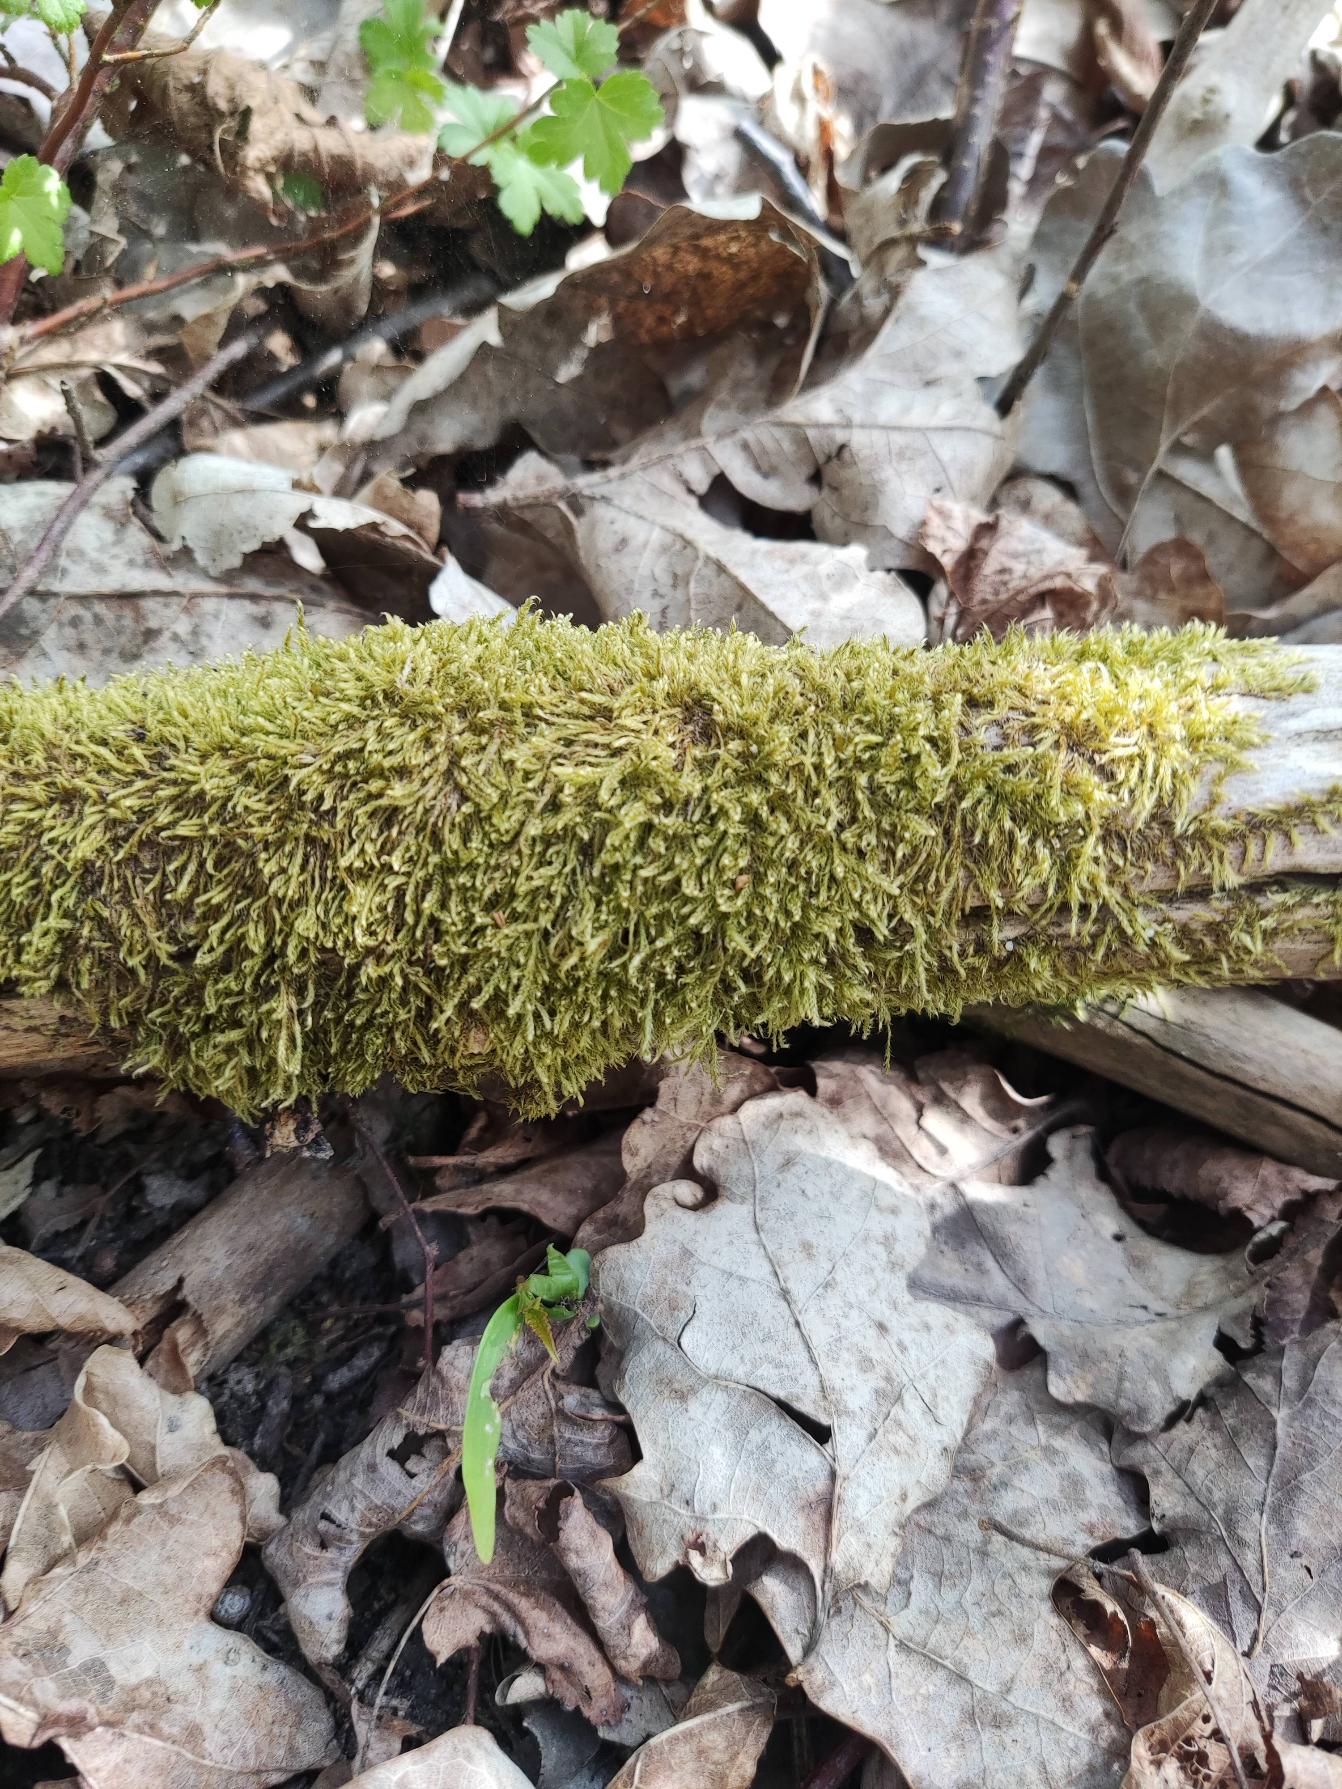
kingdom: Plantae
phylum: Bryophyta
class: Bryopsida
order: Hypnales
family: Hypnaceae
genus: Hypnum
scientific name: Hypnum cupressiforme
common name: Almindelig cypresmos
